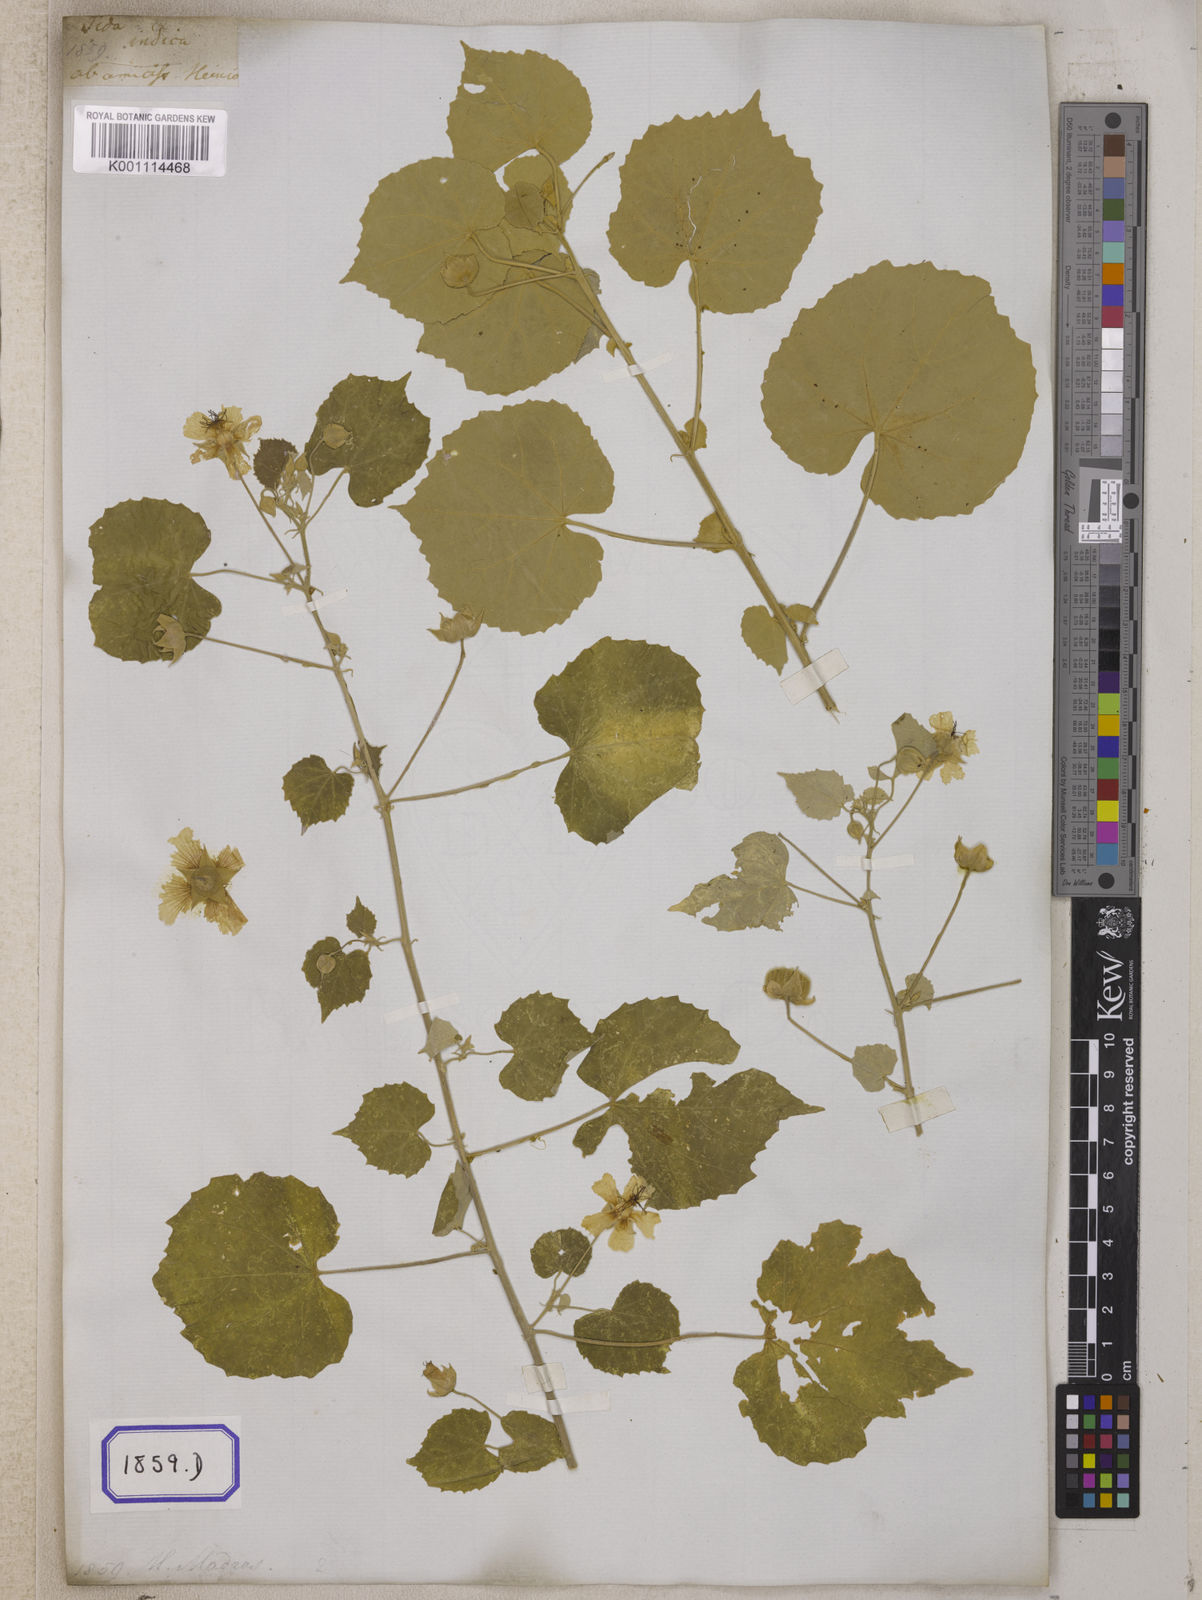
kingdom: Plantae
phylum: Tracheophyta
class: Magnoliopsida
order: Malvales
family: Malvaceae
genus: Abutilon
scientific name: Abutilon indicum
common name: Indian abutilon
